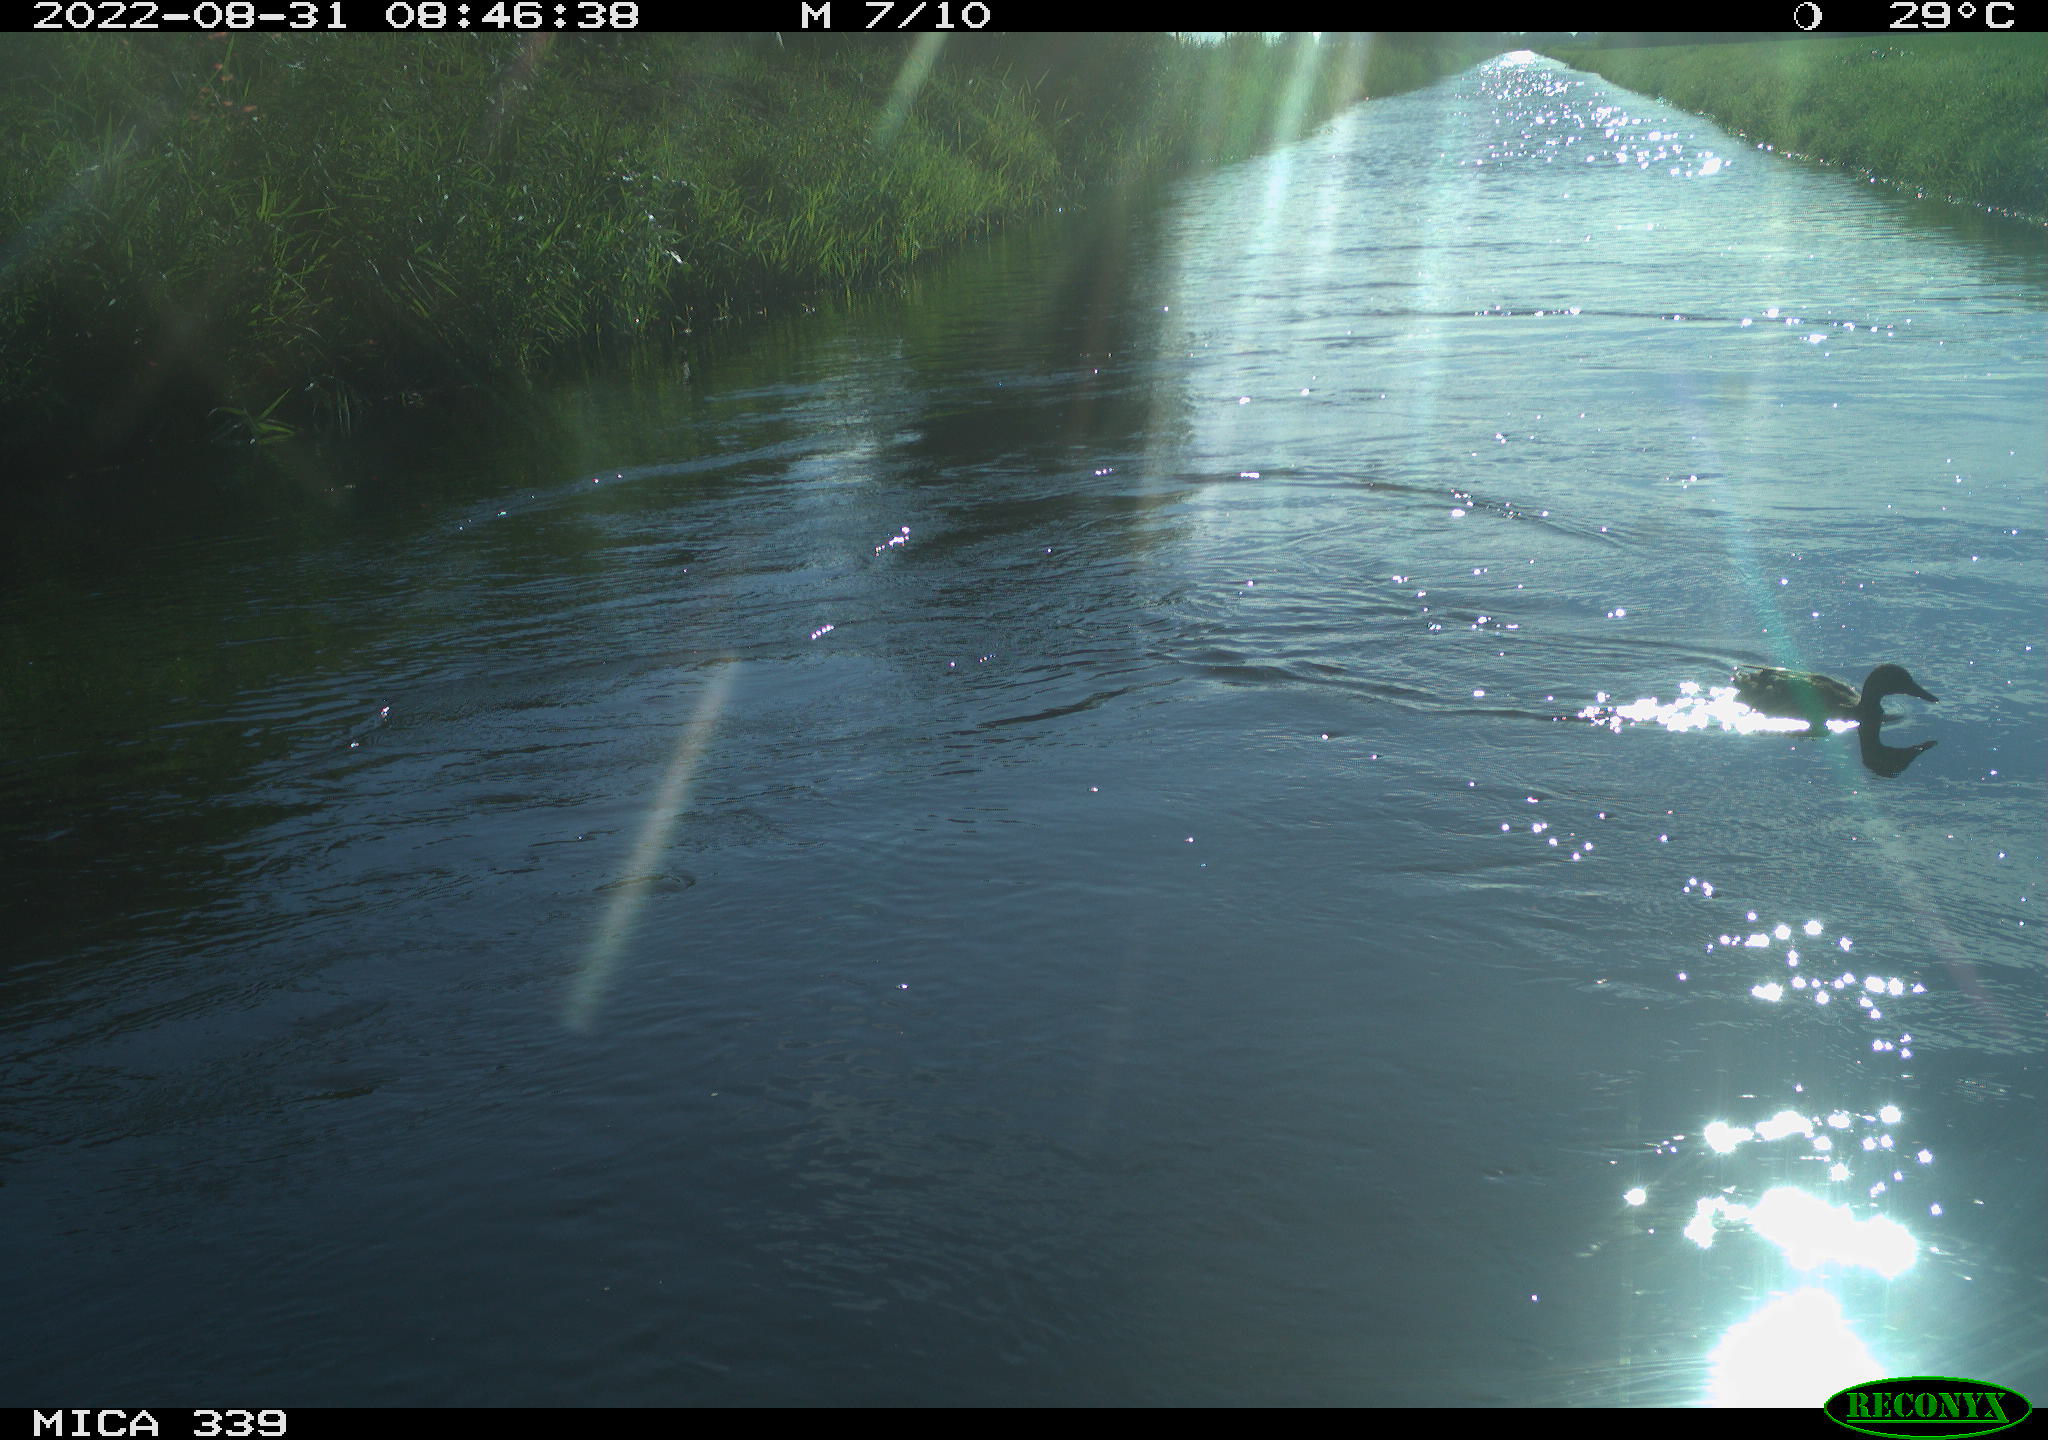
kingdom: Animalia
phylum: Chordata
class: Aves
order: Anseriformes
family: Anatidae
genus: Anas
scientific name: Anas platyrhynchos
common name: Mallard
